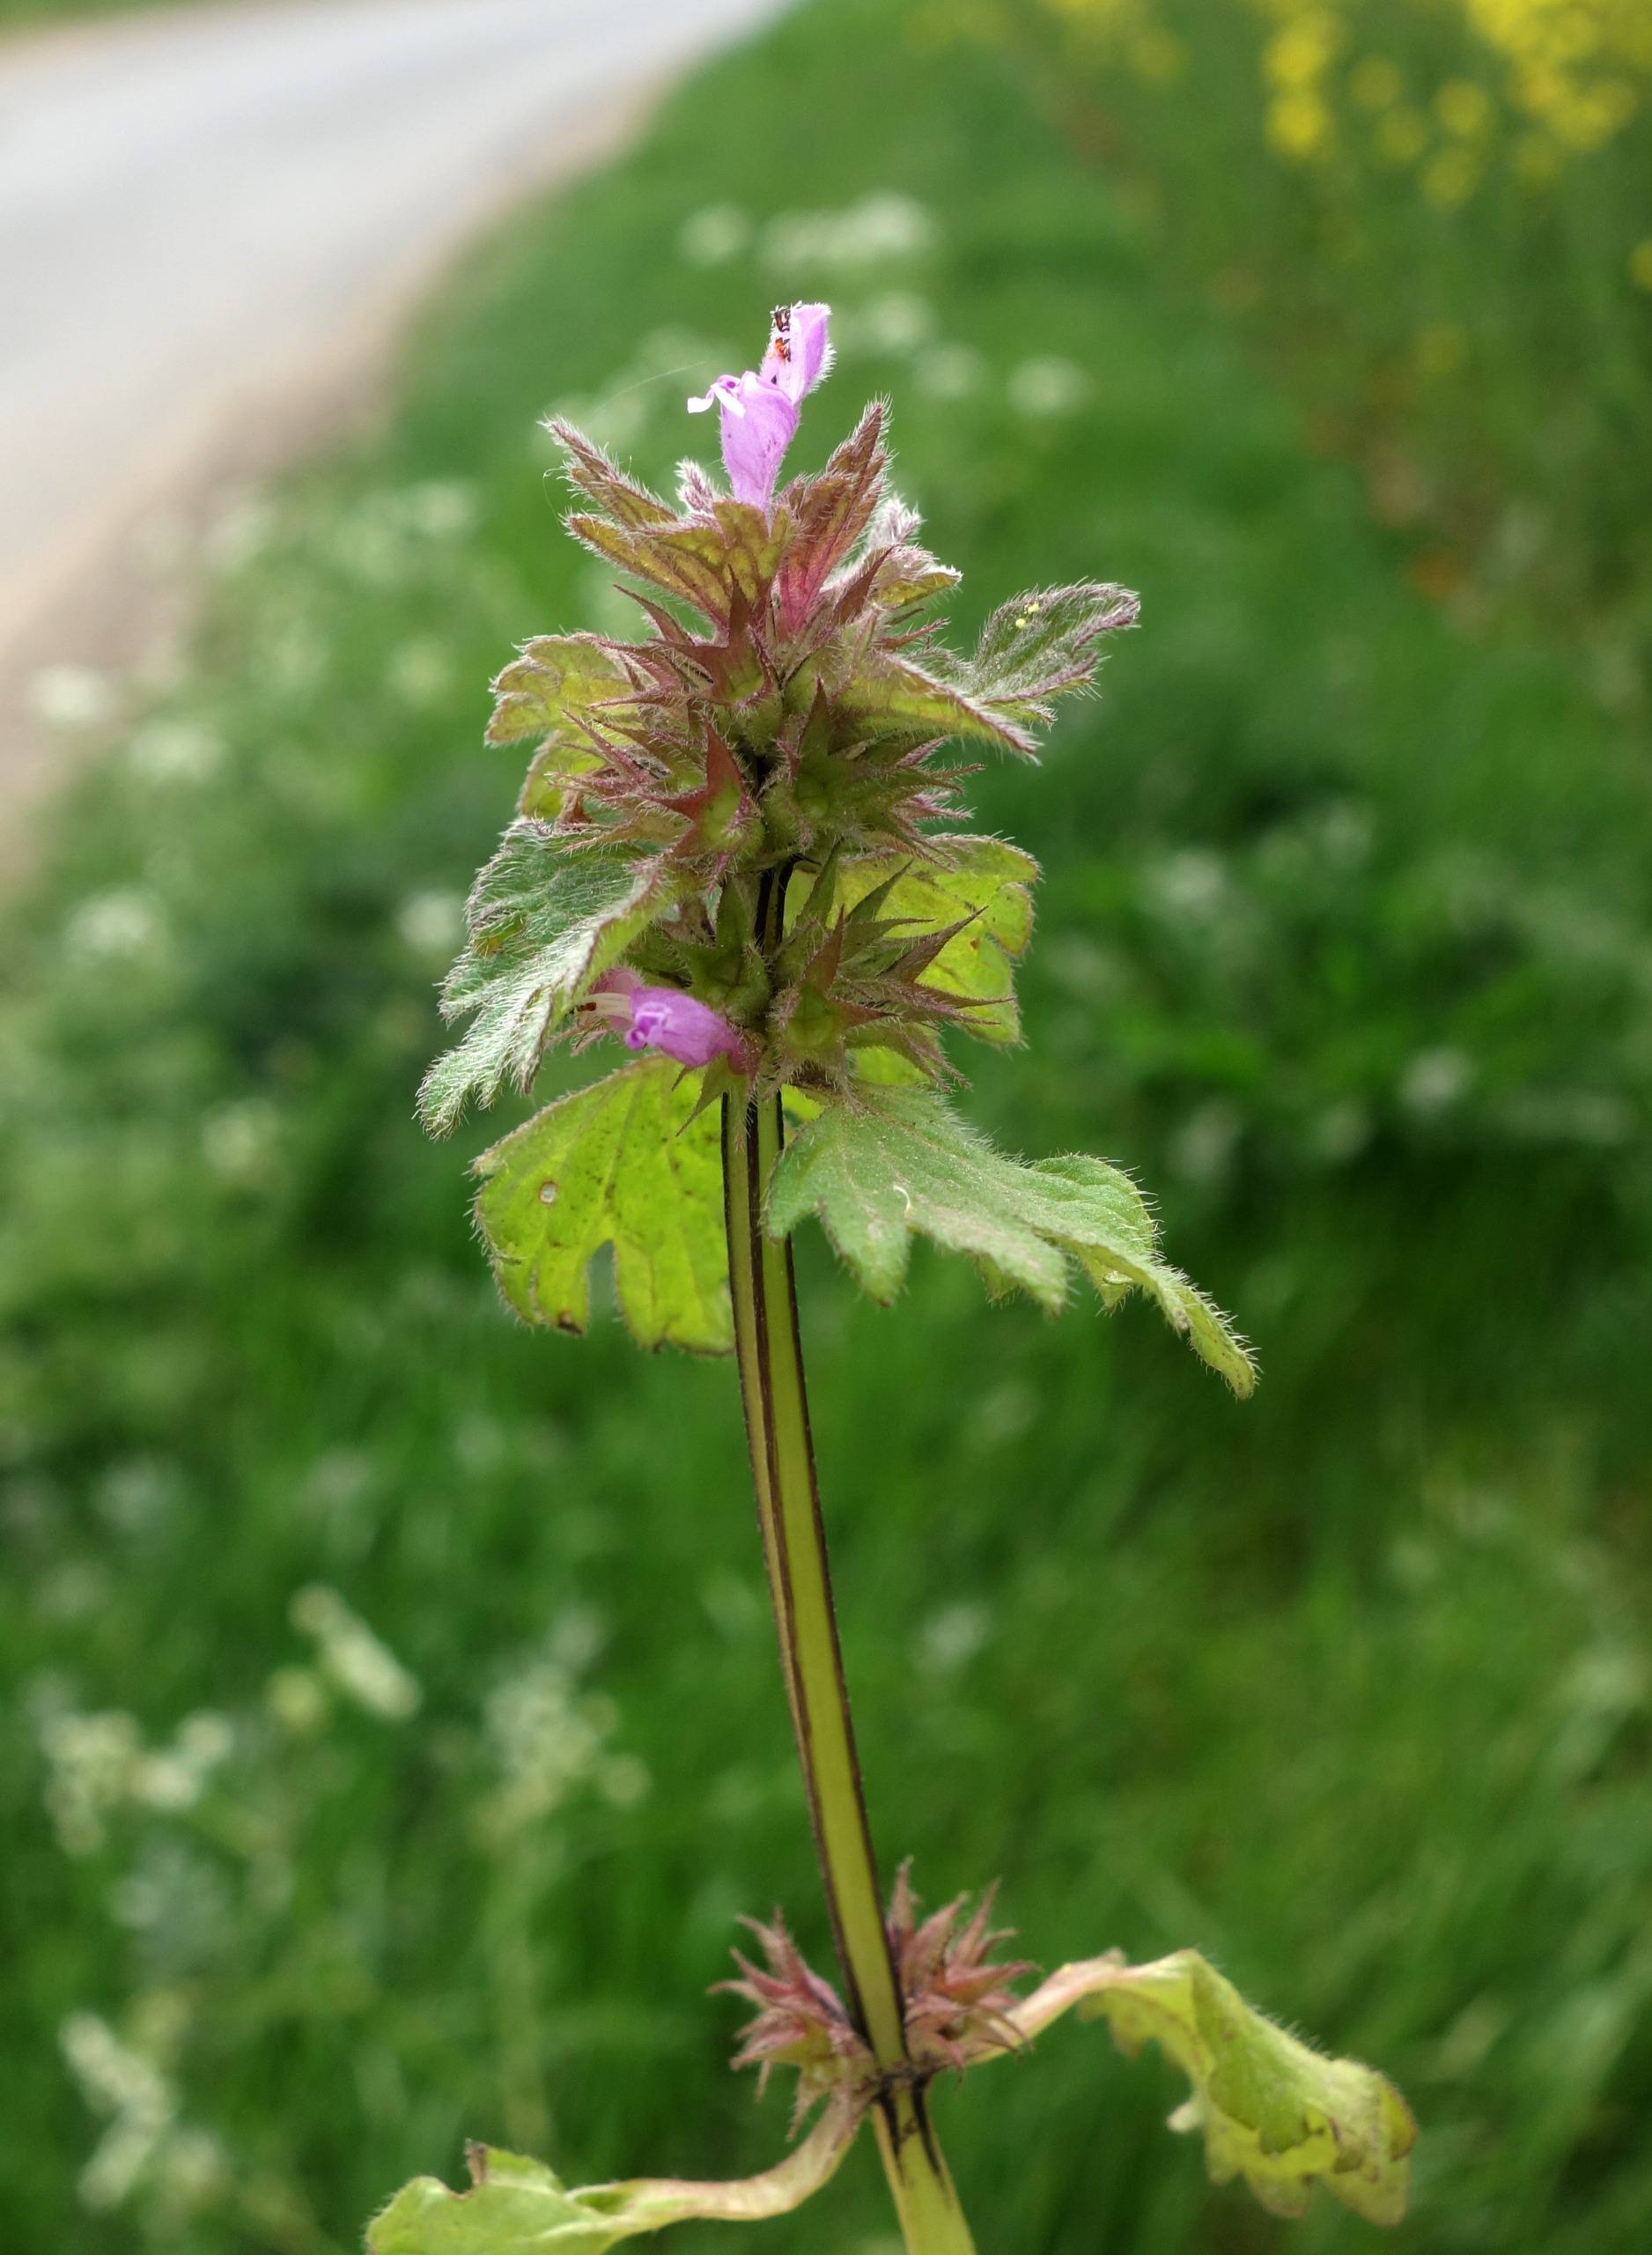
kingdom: Plantae
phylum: Tracheophyta
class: Magnoliopsida
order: Lamiales
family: Lamiaceae
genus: Lamium
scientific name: Lamium hybridum
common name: Fliget tvetand
